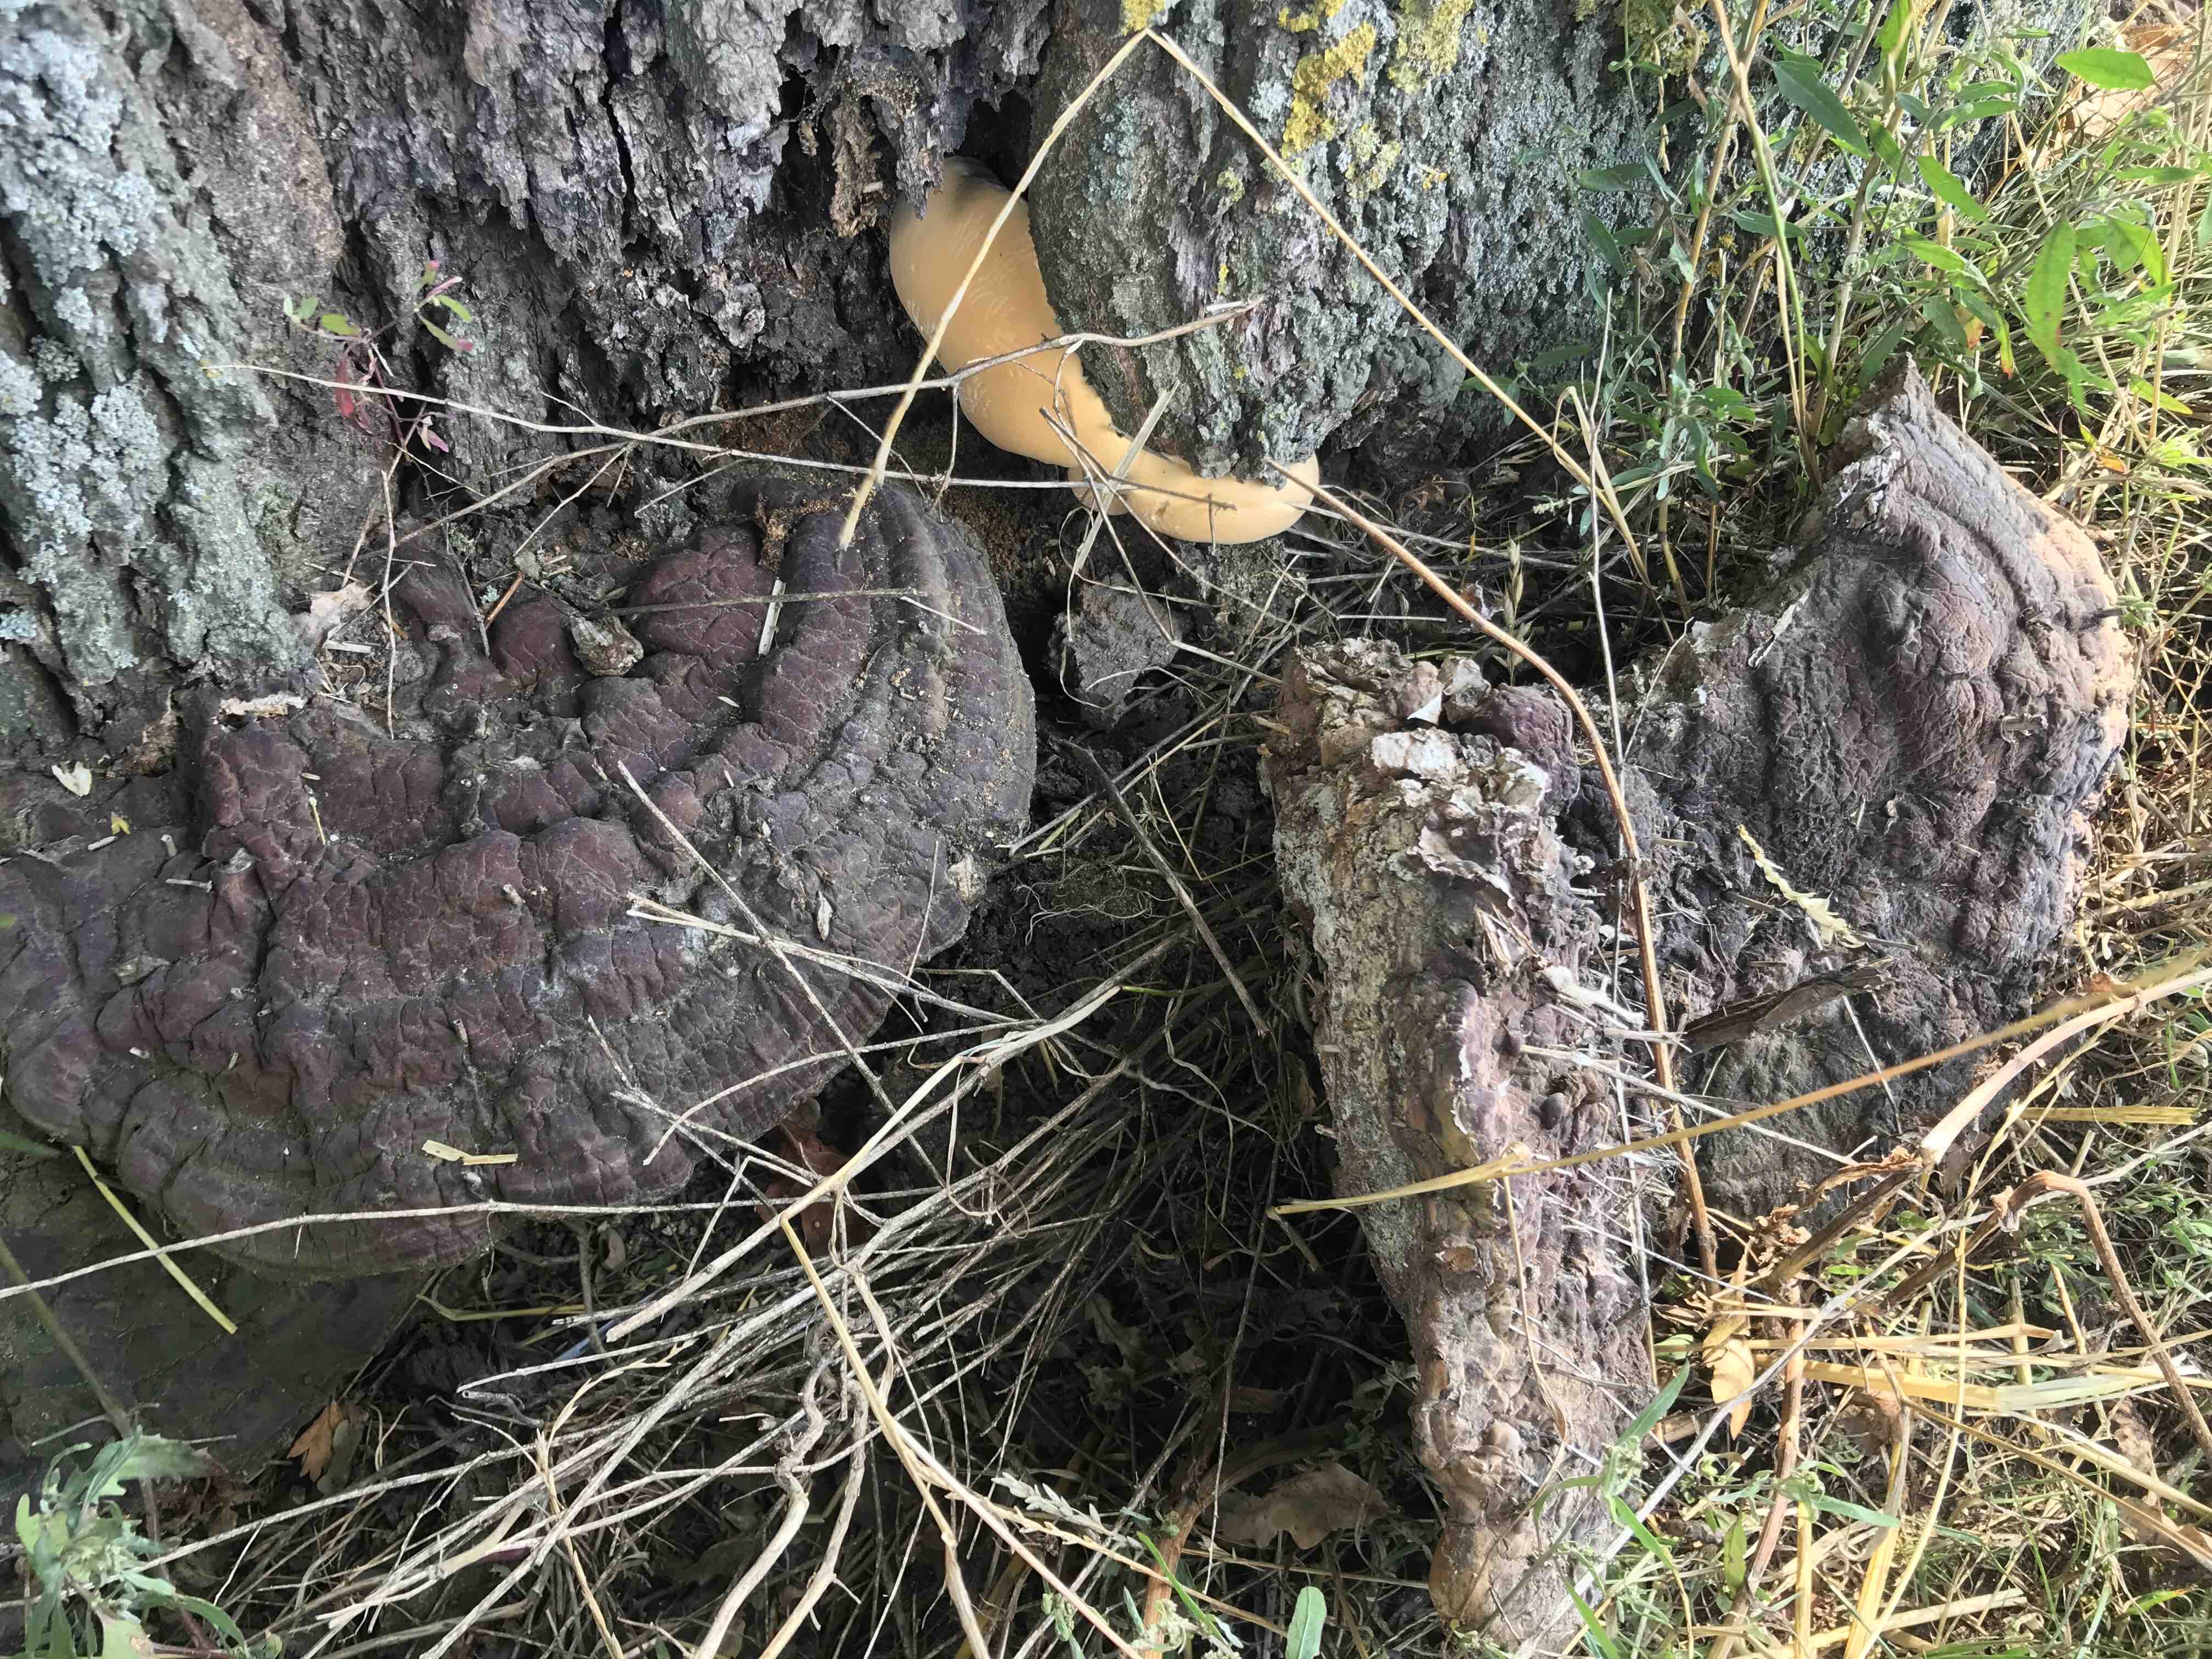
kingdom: Fungi
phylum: Basidiomycota
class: Agaricomycetes
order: Polyporales
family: Polyporaceae
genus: Ganoderma
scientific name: Ganoderma resinaceum
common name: gyldenbrun lakporesvamp
